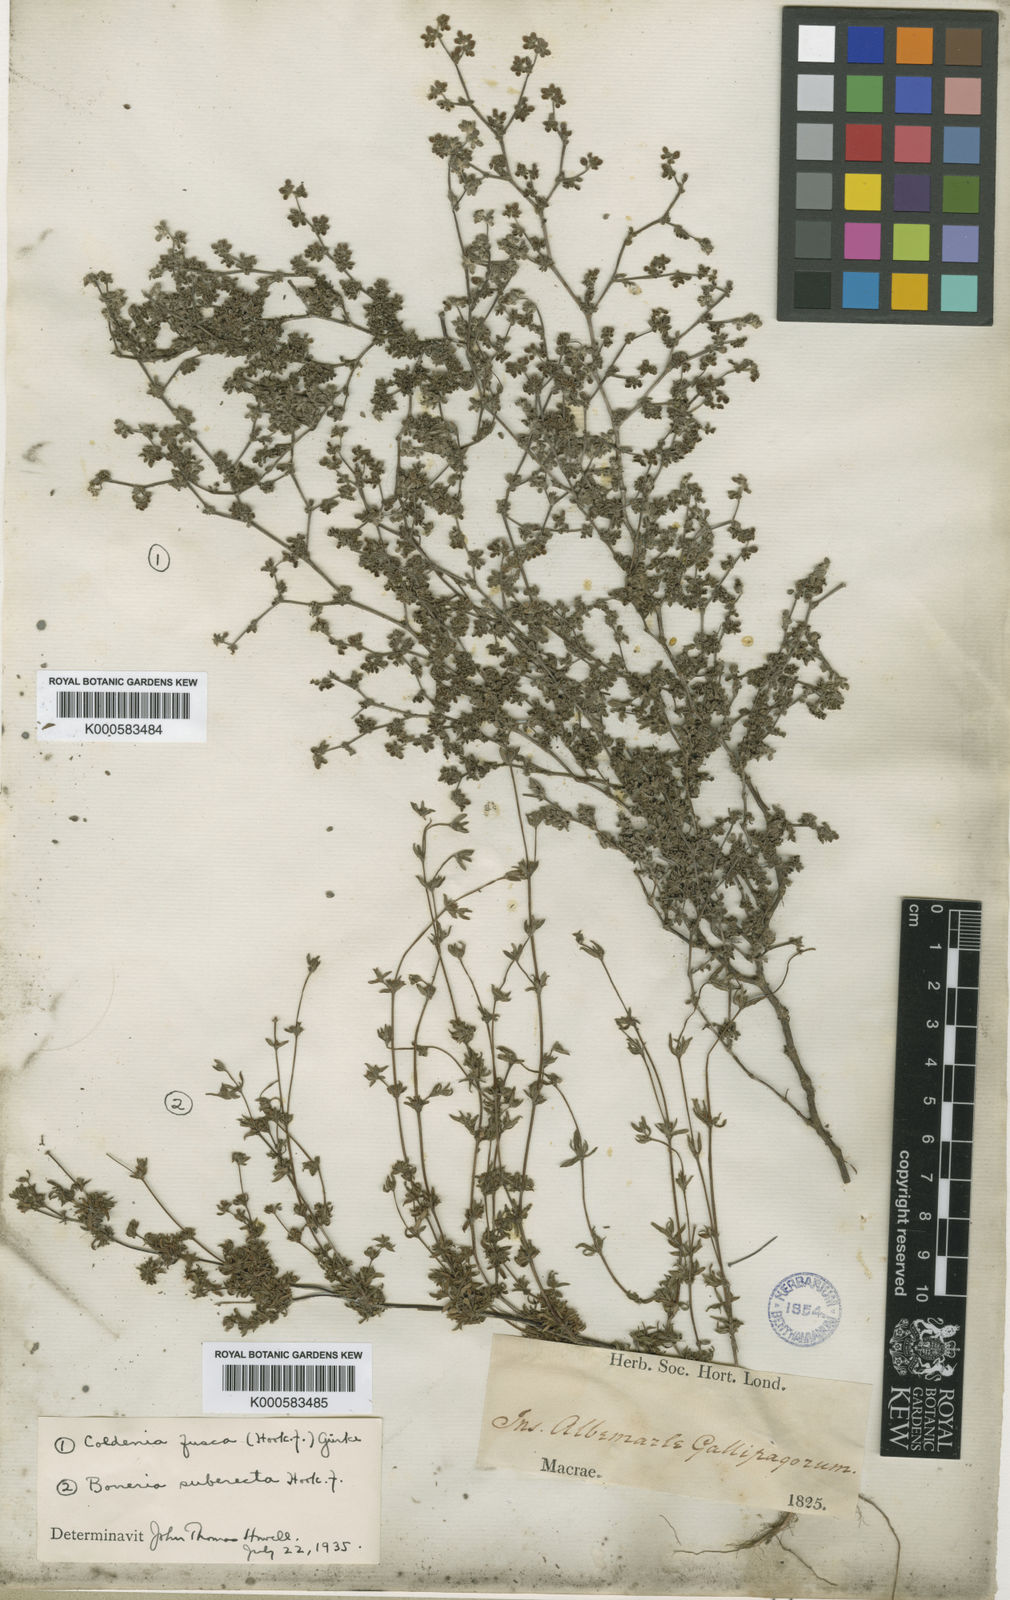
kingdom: Plantae
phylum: Tracheophyta
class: Magnoliopsida
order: Boraginales
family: Ehretiaceae
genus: Tiquilia
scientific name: Tiquilia darwinii
